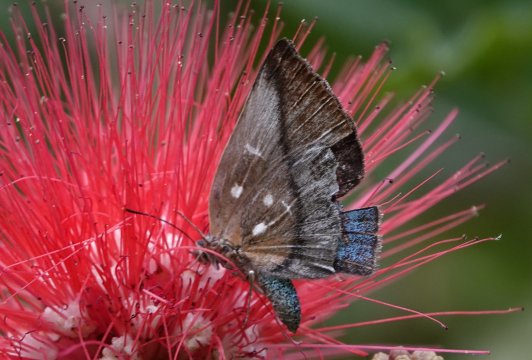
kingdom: Animalia
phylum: Arthropoda
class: Insecta
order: Lepidoptera
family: Nymphalidae
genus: Ethope
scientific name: Ethope
